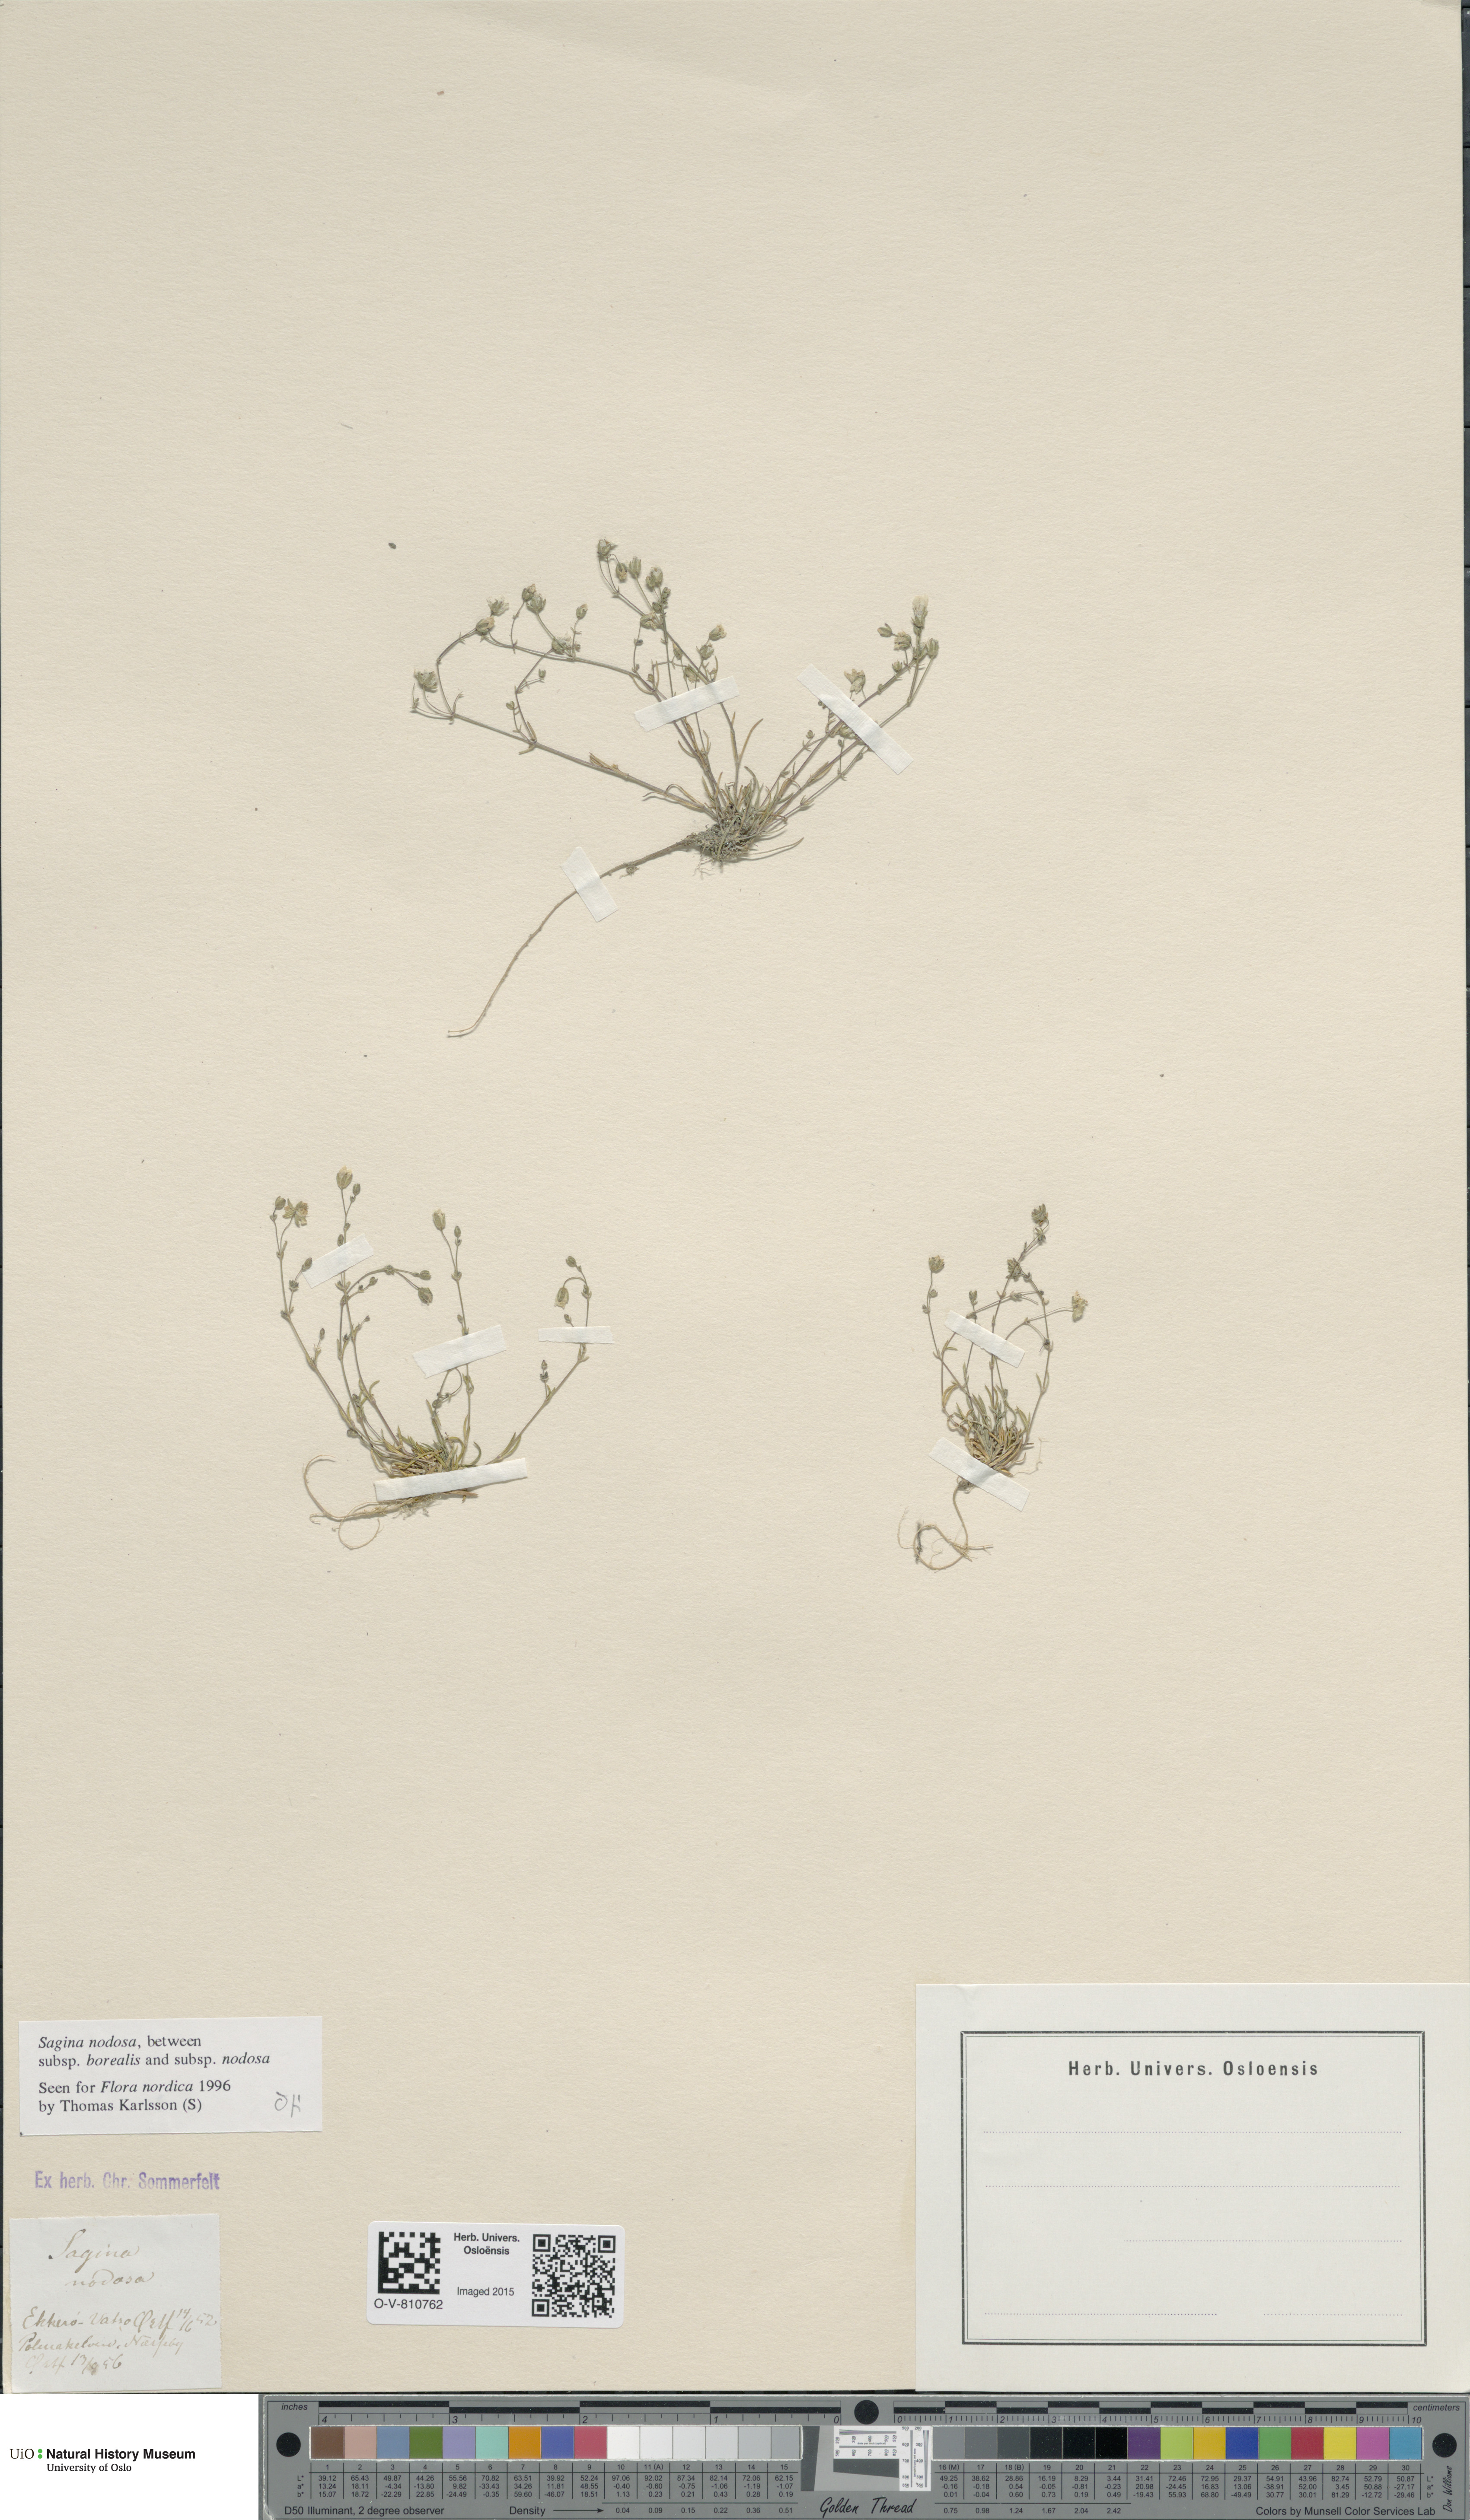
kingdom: Plantae
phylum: Tracheophyta
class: Magnoliopsida
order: Caryophyllales
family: Caryophyllaceae
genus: Sagina
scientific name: Sagina
